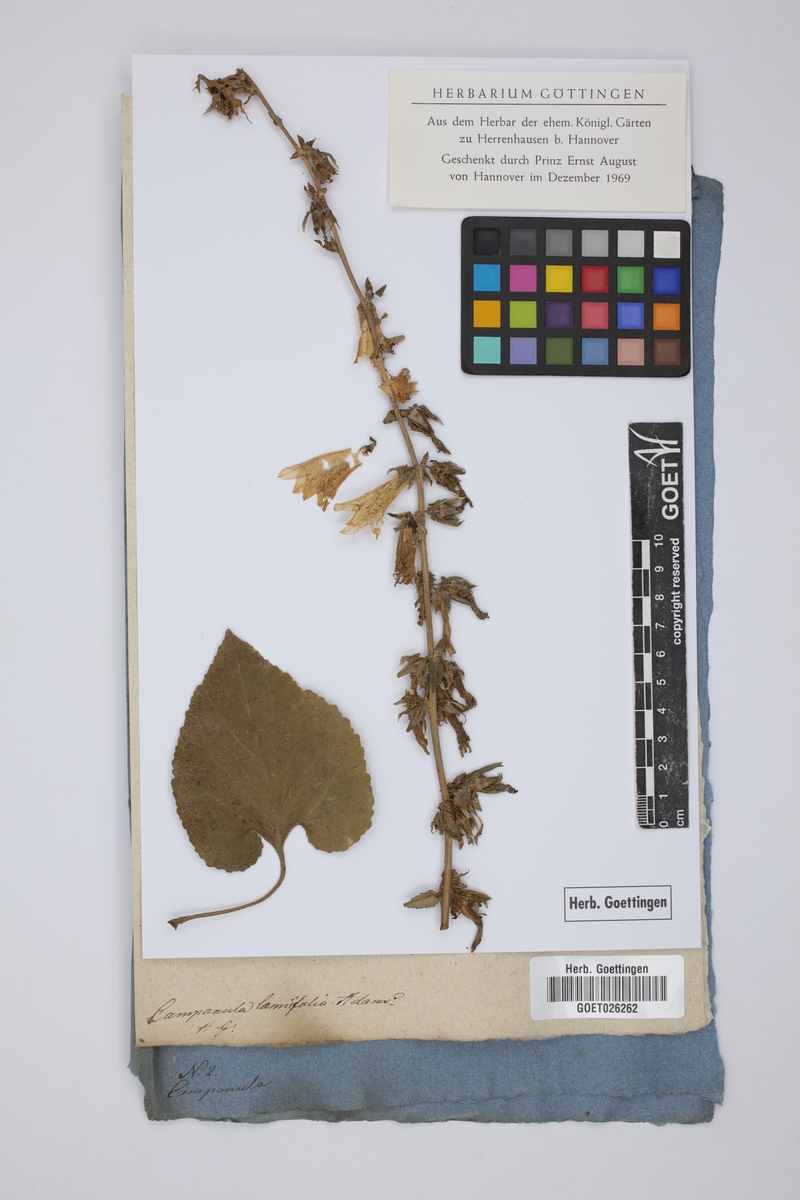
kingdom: Plantae
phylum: Tracheophyta
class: Magnoliopsida
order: Asterales
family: Campanulaceae
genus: Campanula
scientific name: Campanula alliariifolia
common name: Cornish bellflower
